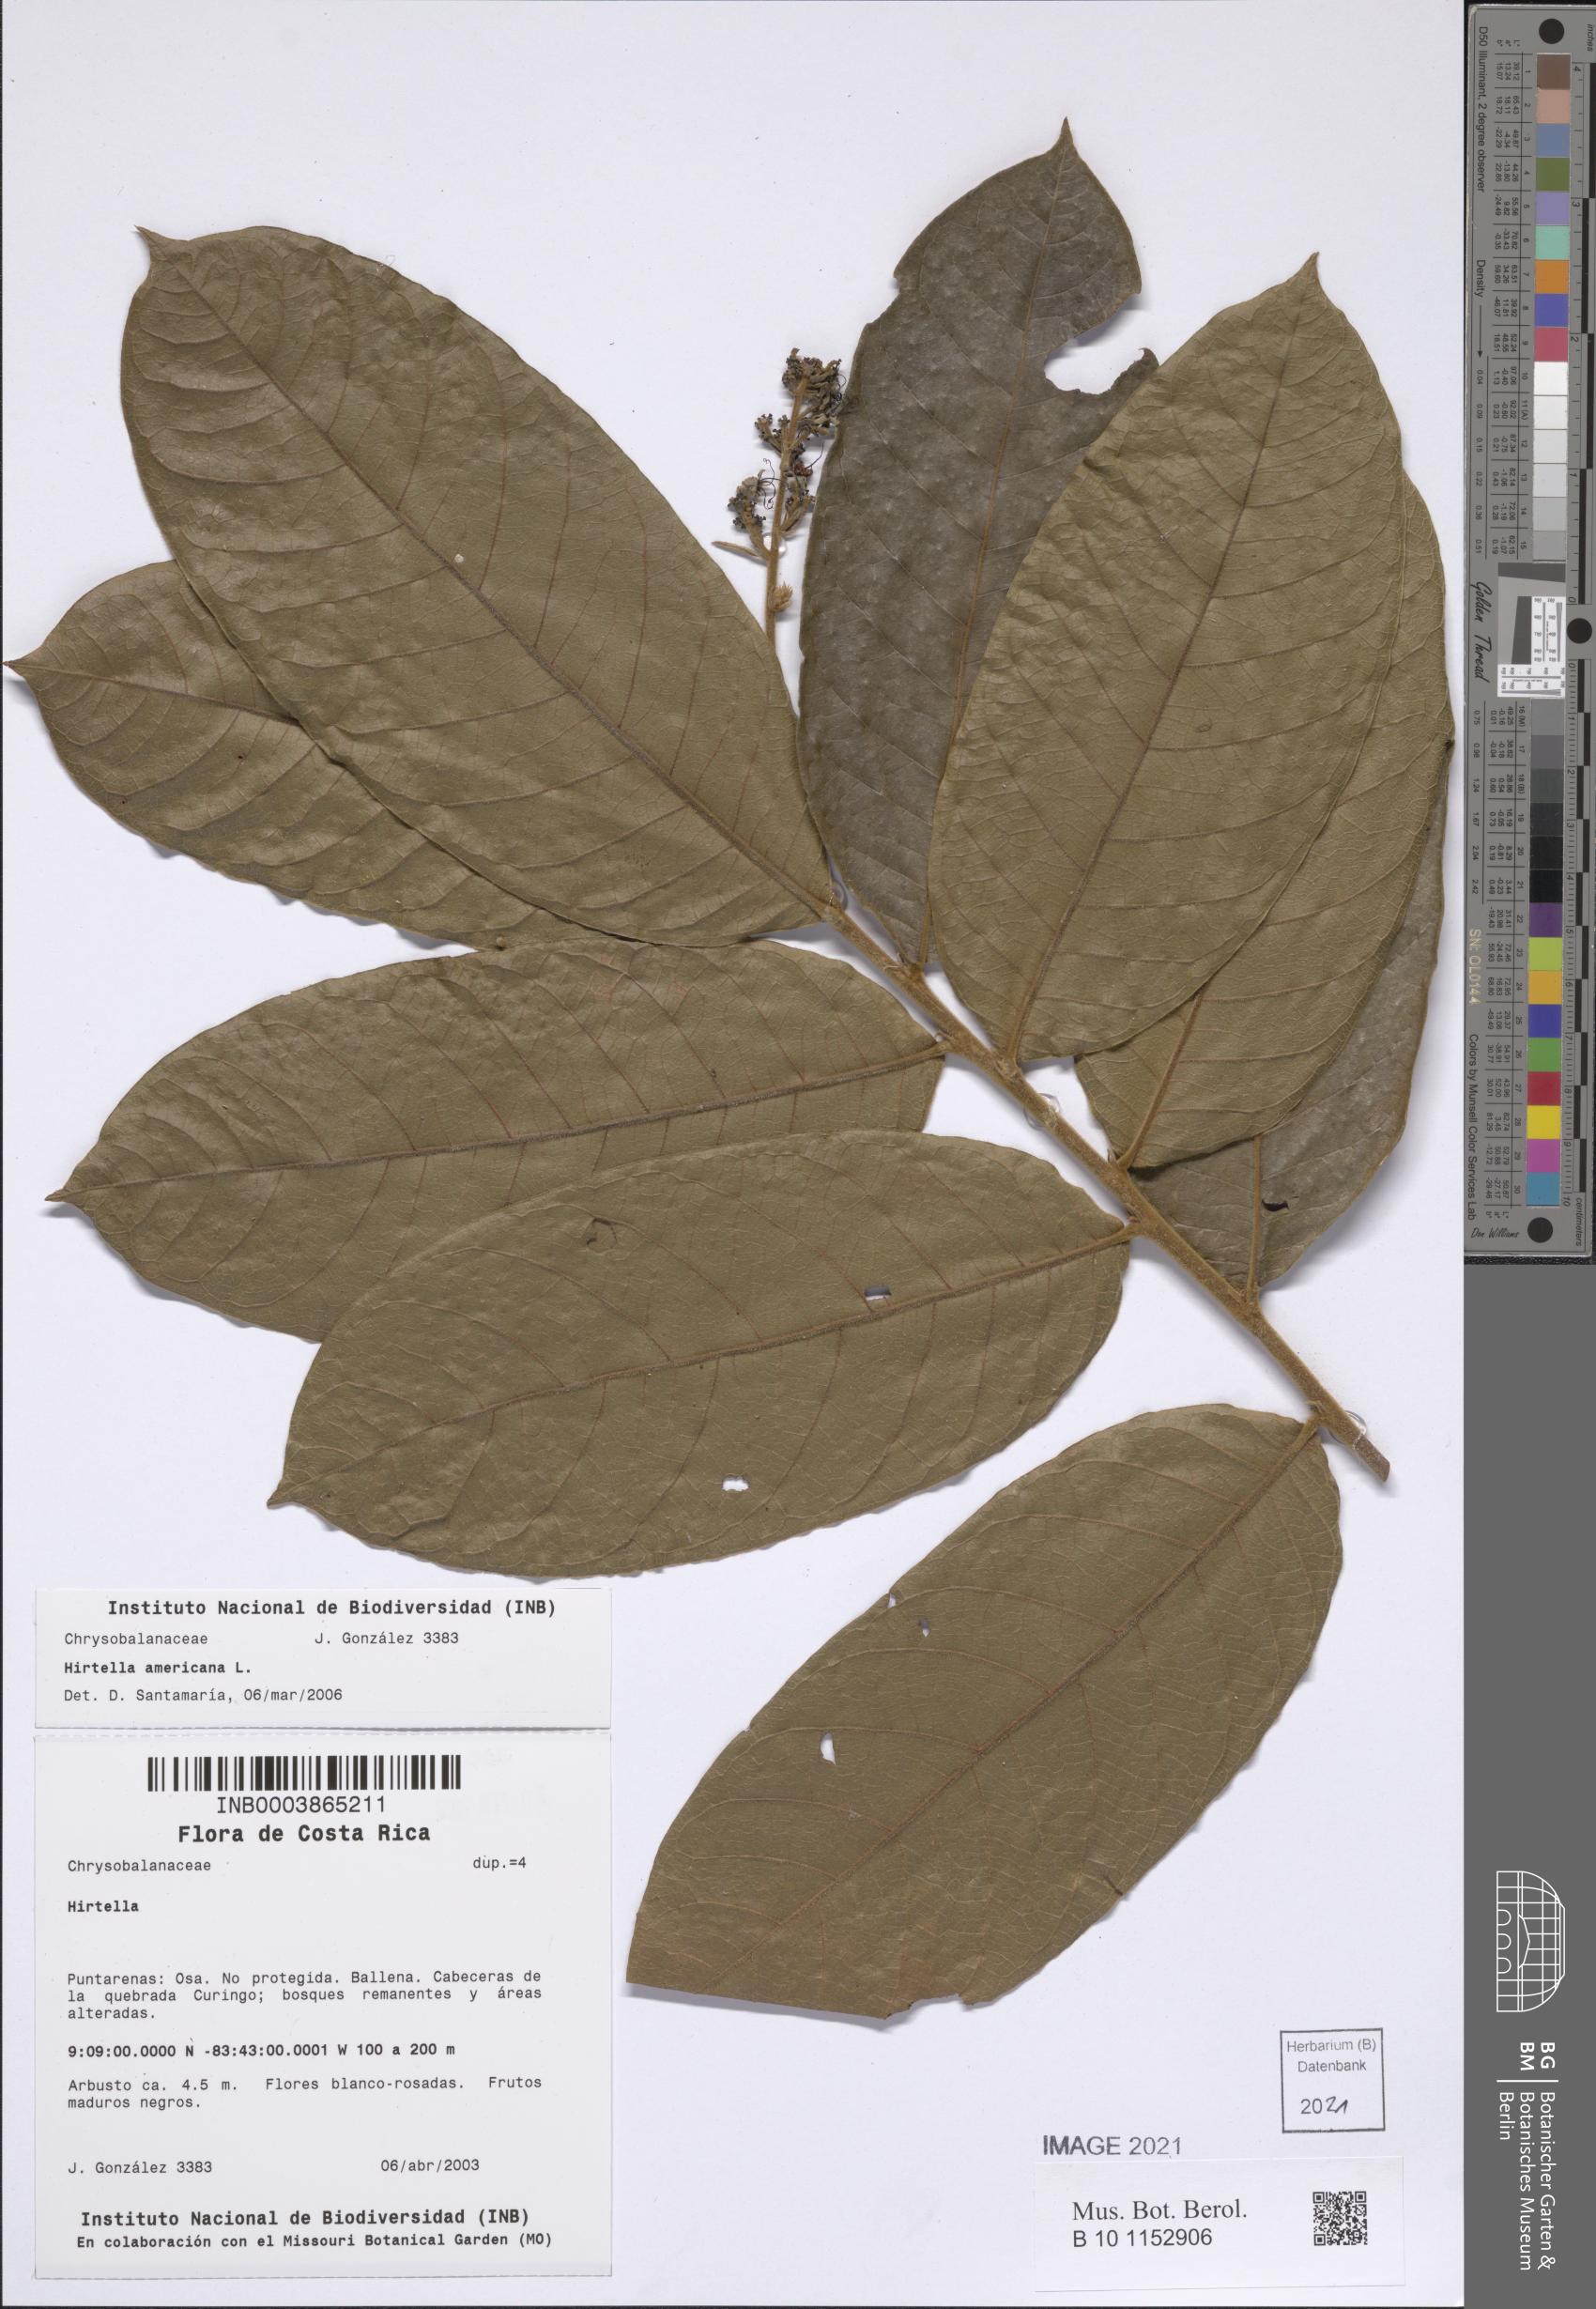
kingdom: Plantae
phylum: Tracheophyta
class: Magnoliopsida
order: Malpighiales
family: Chrysobalanaceae
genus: Hirtella
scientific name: Hirtella americana
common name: Pigeon-plum
